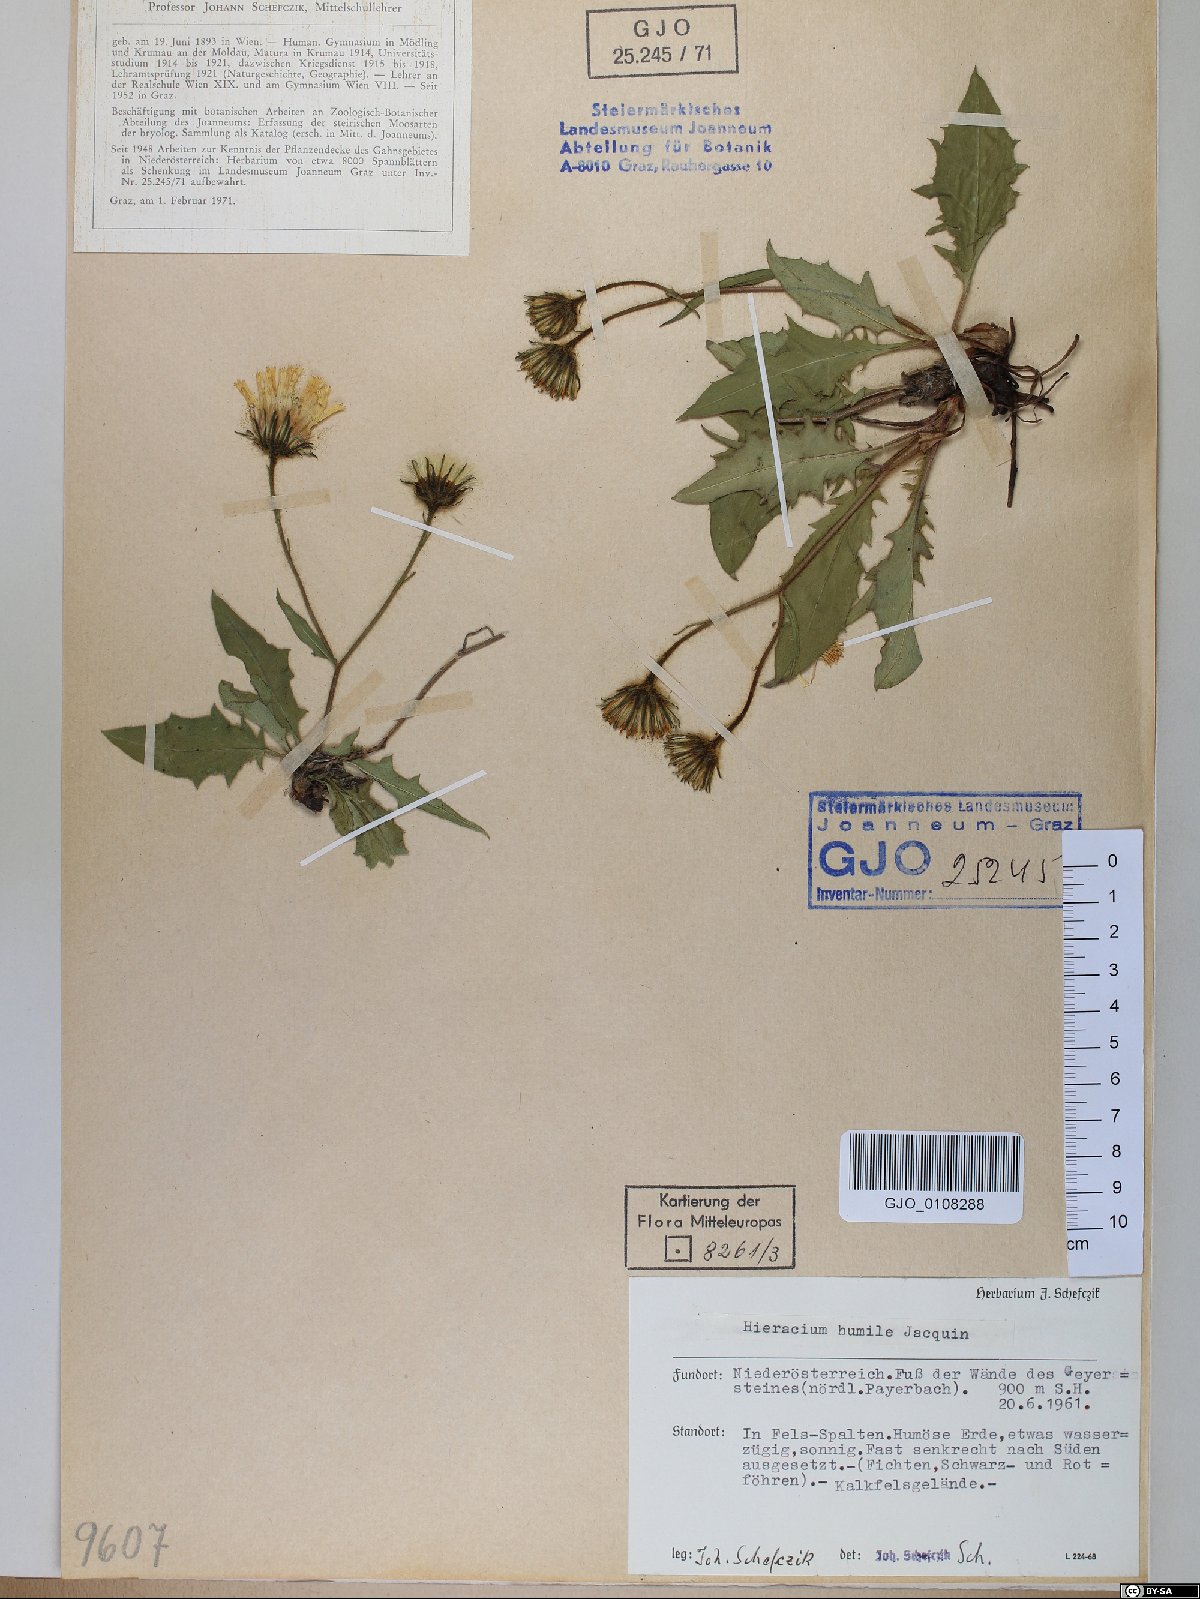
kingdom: Plantae
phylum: Tracheophyta
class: Magnoliopsida
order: Asterales
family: Asteraceae
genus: Hieracium
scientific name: Hieracium humile
